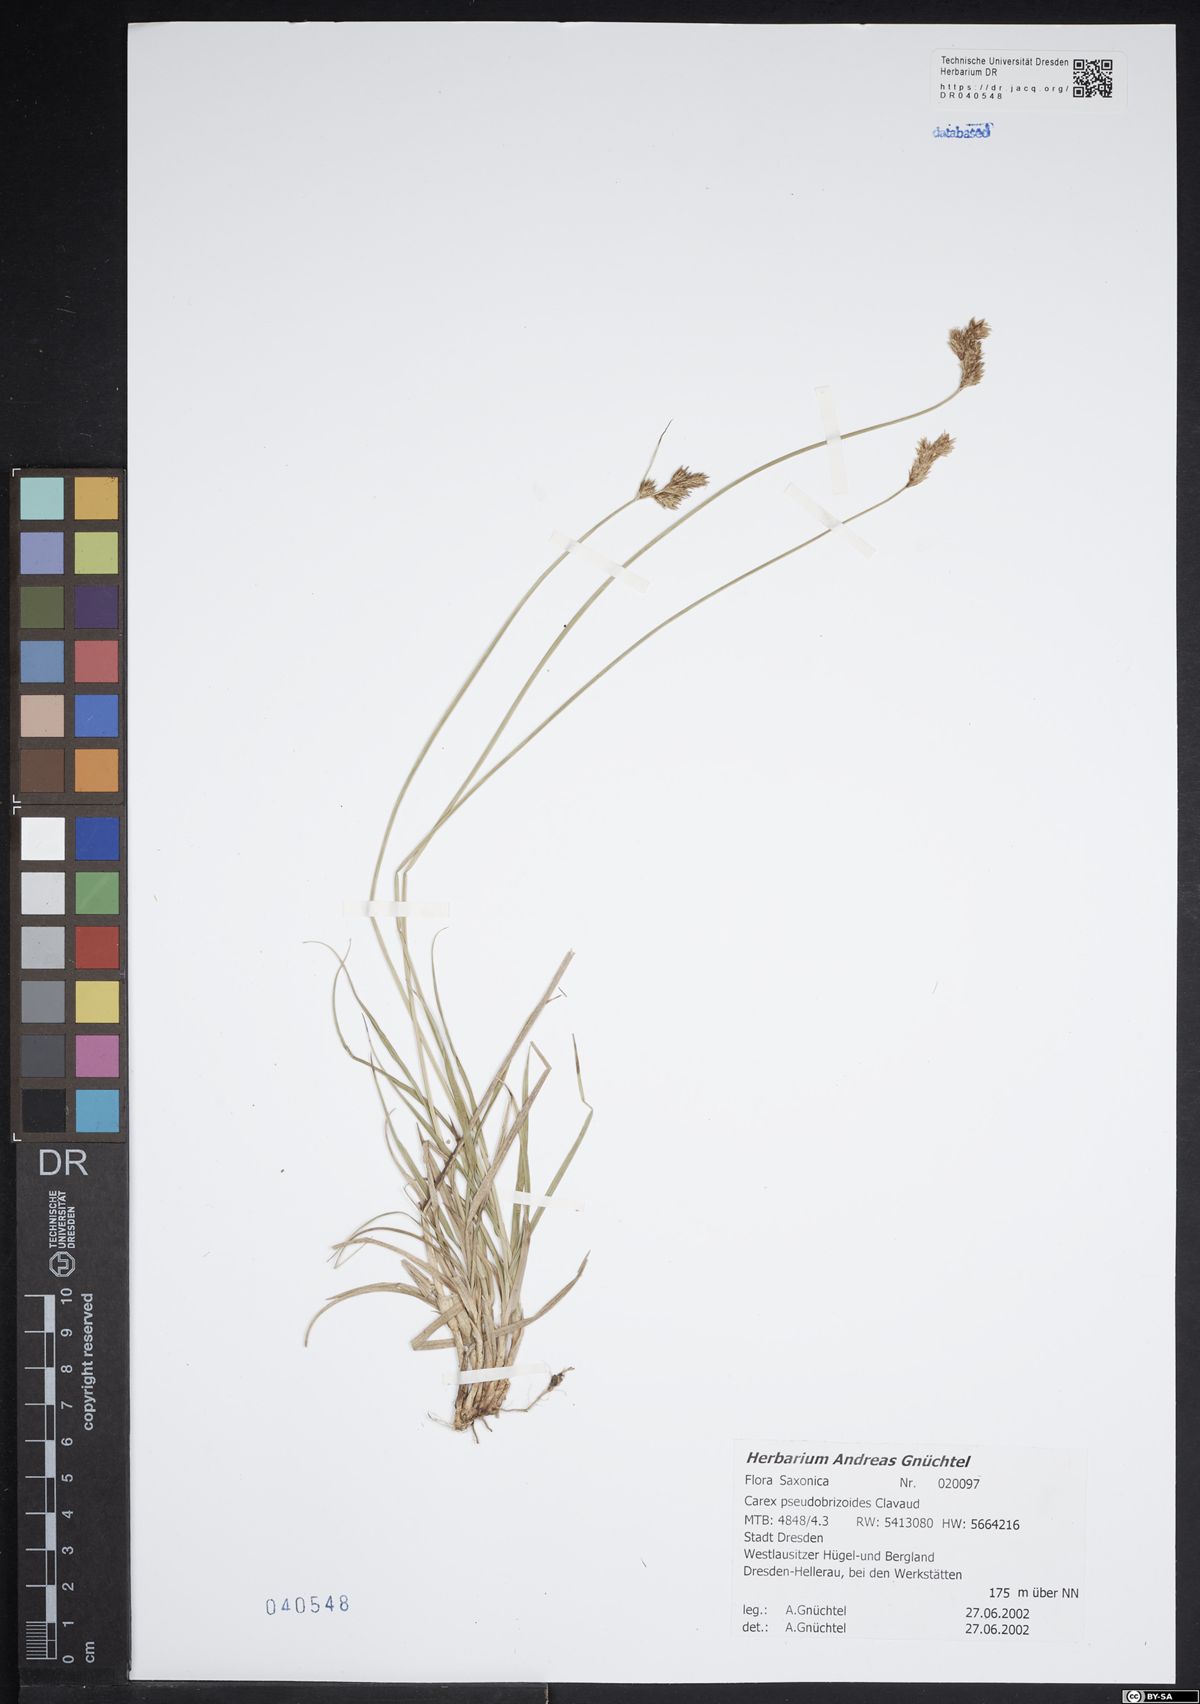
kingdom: Plantae
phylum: Tracheophyta
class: Liliopsida
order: Poales
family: Cyperaceae
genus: Carex
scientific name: Carex pseudobrizoides
